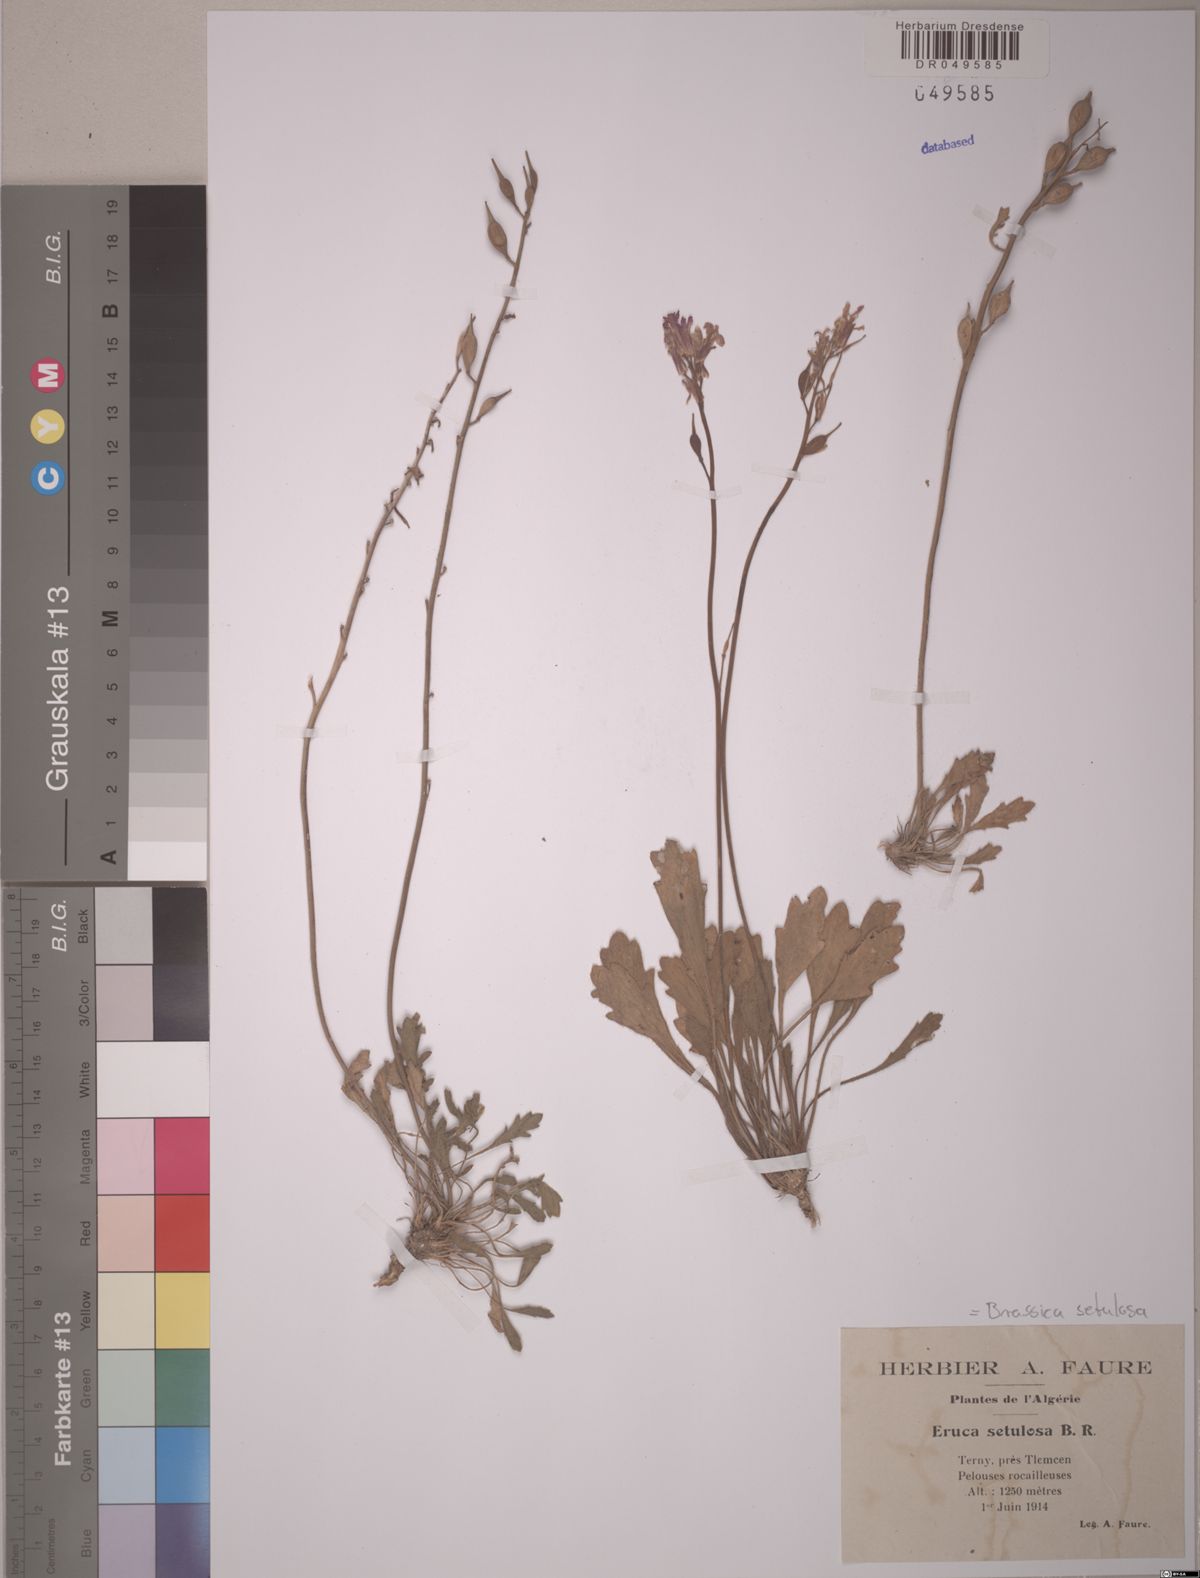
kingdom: Plantae
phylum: Tracheophyta
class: Magnoliopsida
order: Brassicales
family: Brassicaceae
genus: Eruca
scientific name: Eruca setulosa
